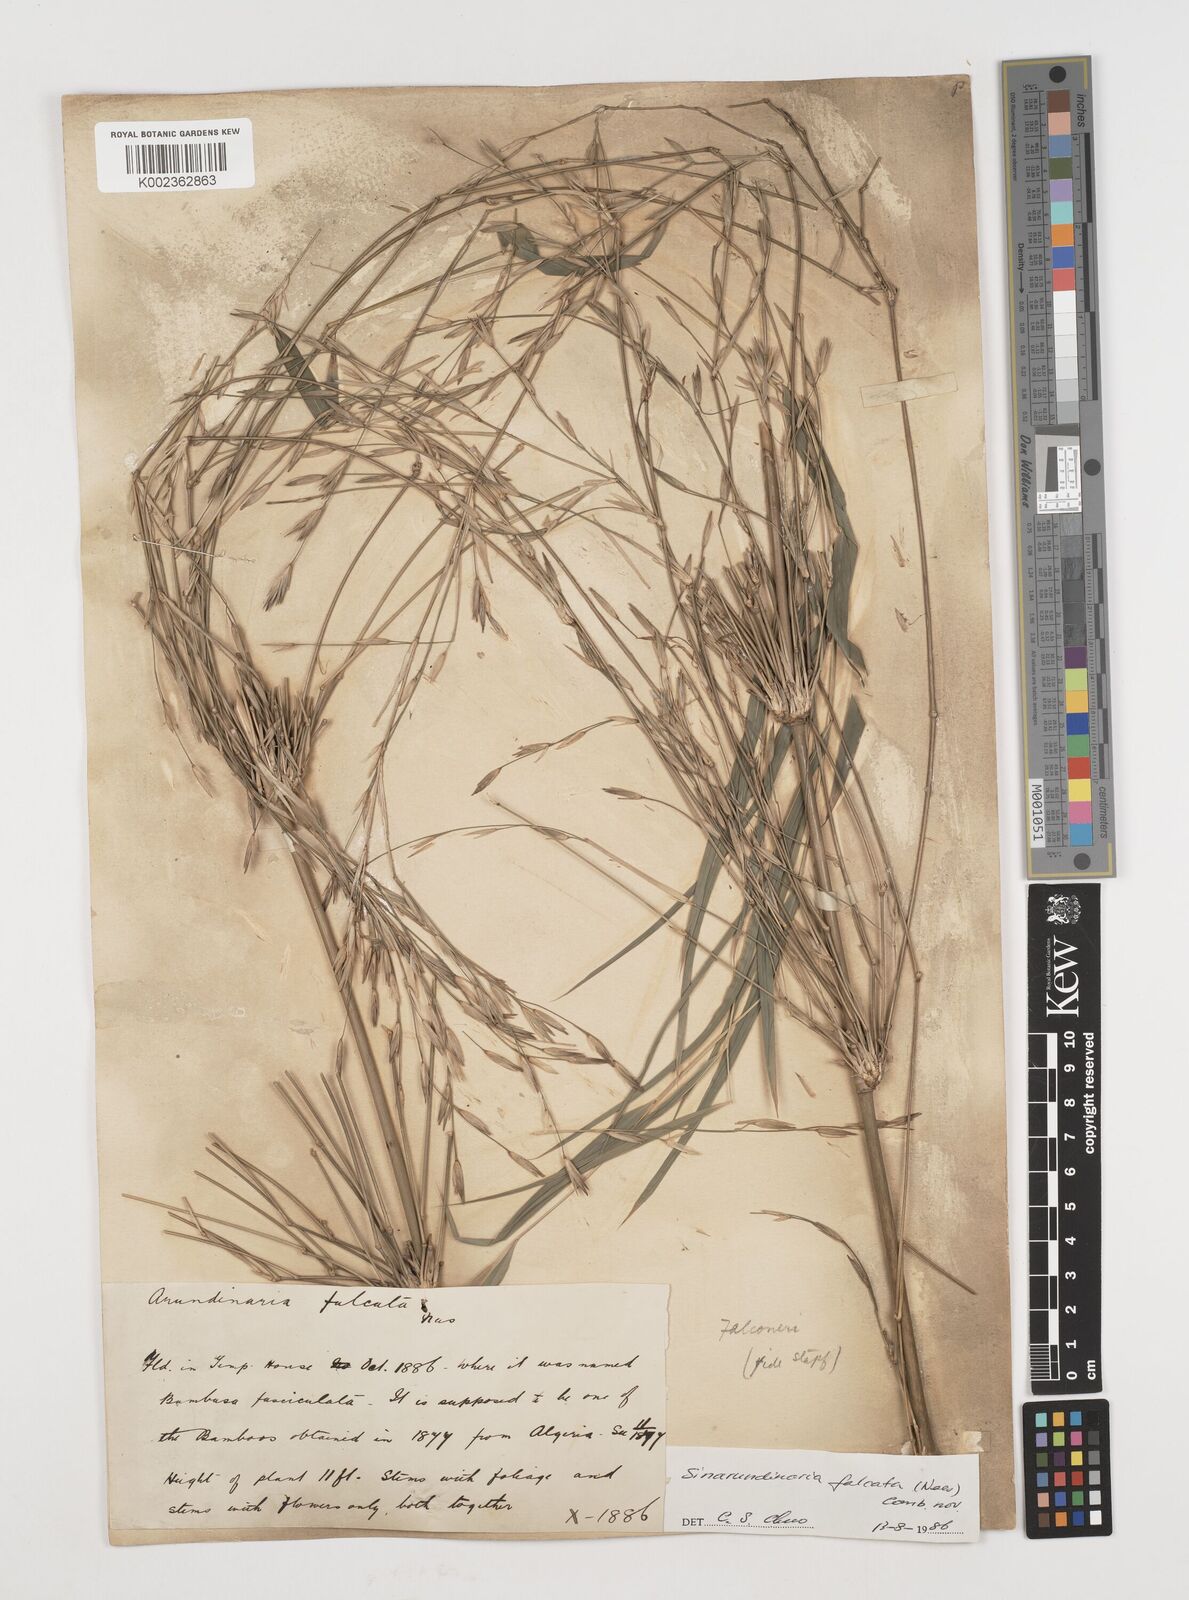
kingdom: Plantae
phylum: Tracheophyta
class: Liliopsida
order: Poales
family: Poaceae
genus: Drepanostachyum
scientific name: Drepanostachyum falcatum
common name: Himalayan bamboo
